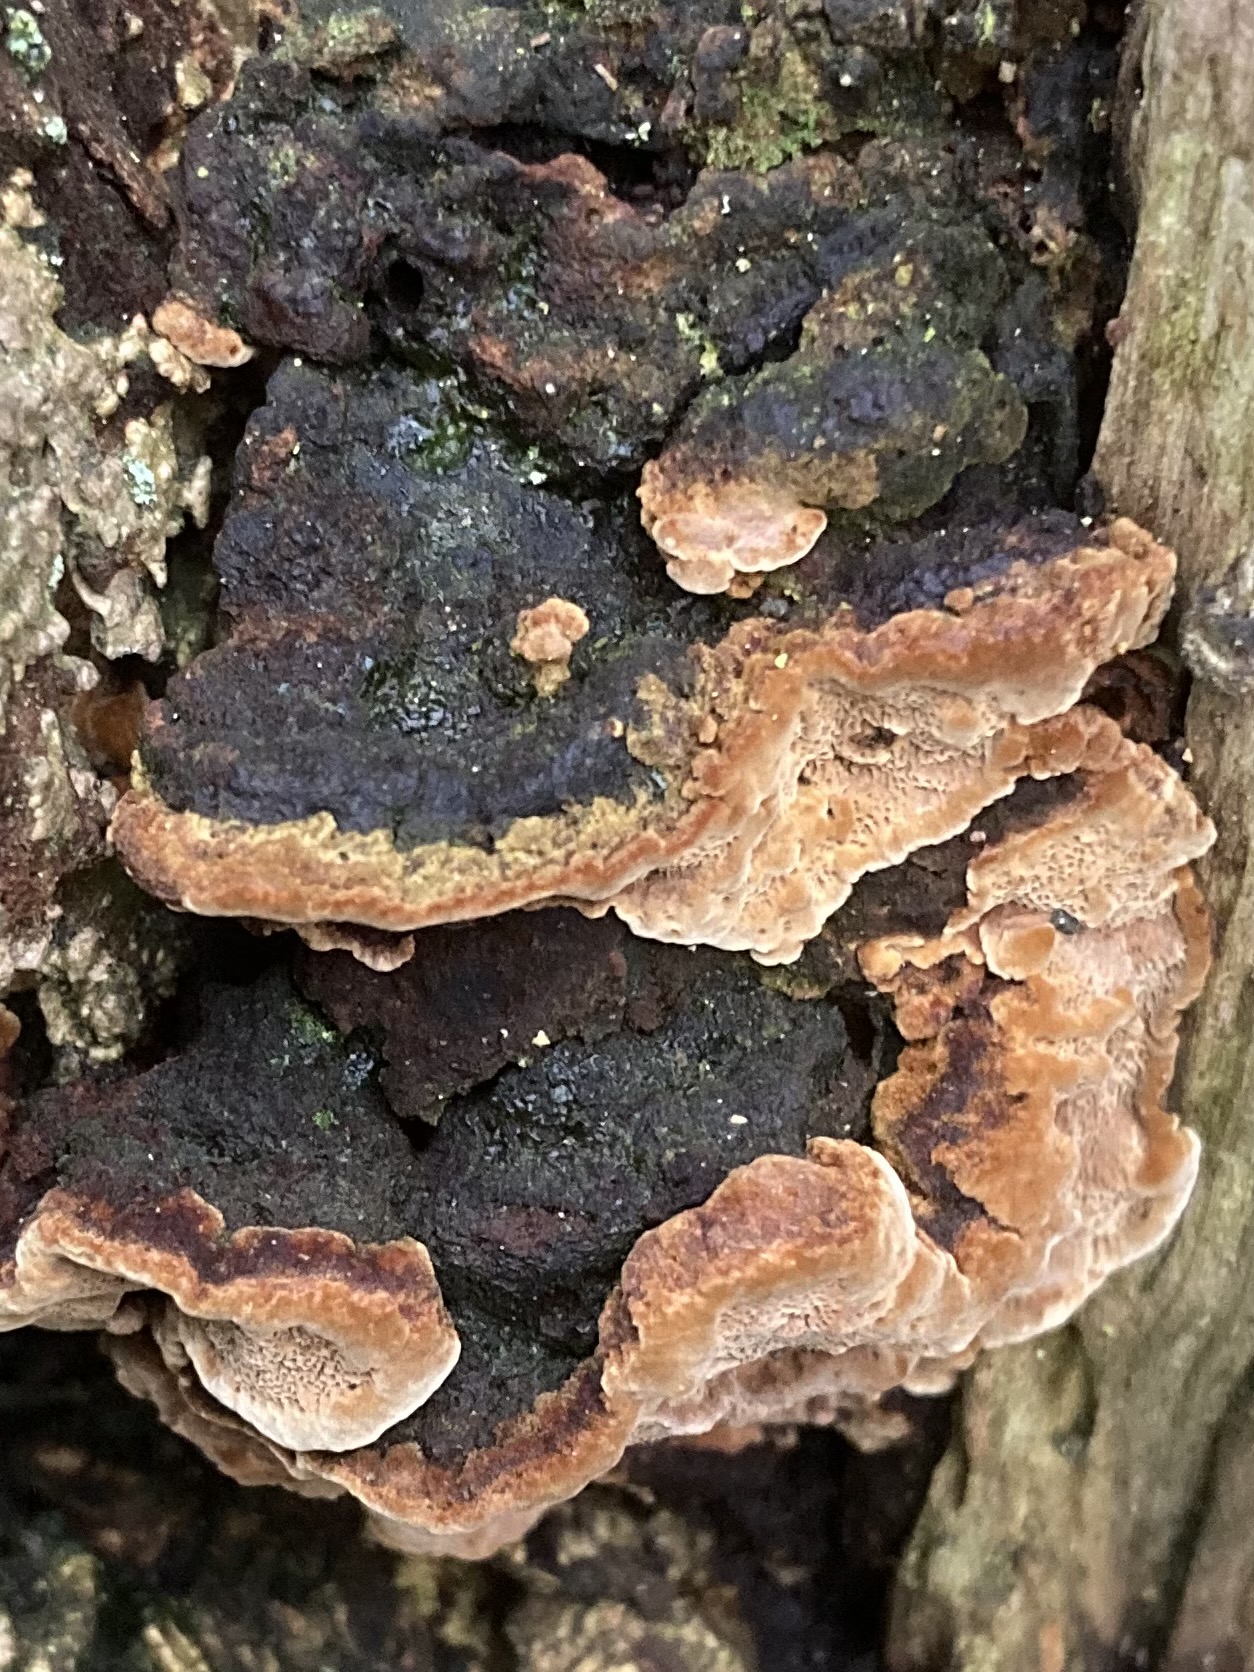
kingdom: Fungi
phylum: Basidiomycota
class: Agaricomycetes
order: Hymenochaetales
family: Hymenochaetaceae
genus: Phellinopsis
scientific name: Phellinopsis conchata
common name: pile-ildporesvamp
